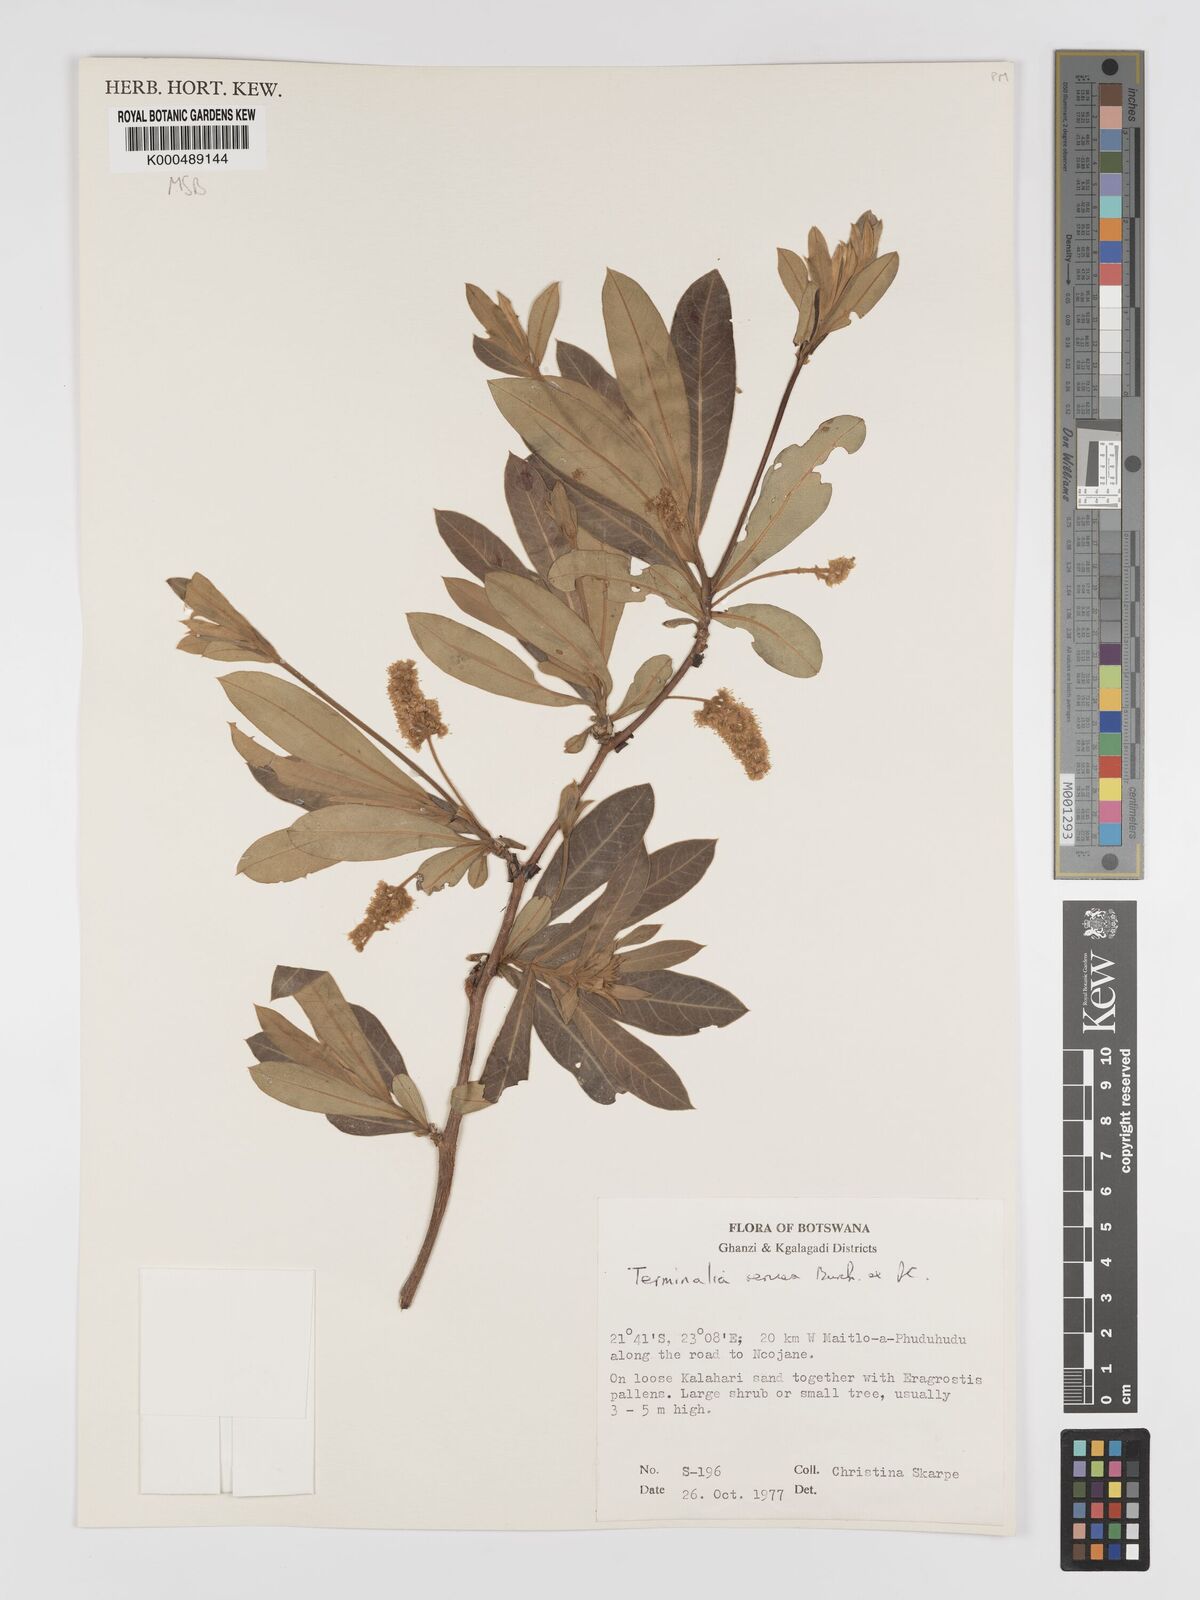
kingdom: Plantae
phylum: Tracheophyta
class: Magnoliopsida
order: Myrtales
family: Combretaceae
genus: Terminalia
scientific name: Terminalia sericea
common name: Clusterleaf
